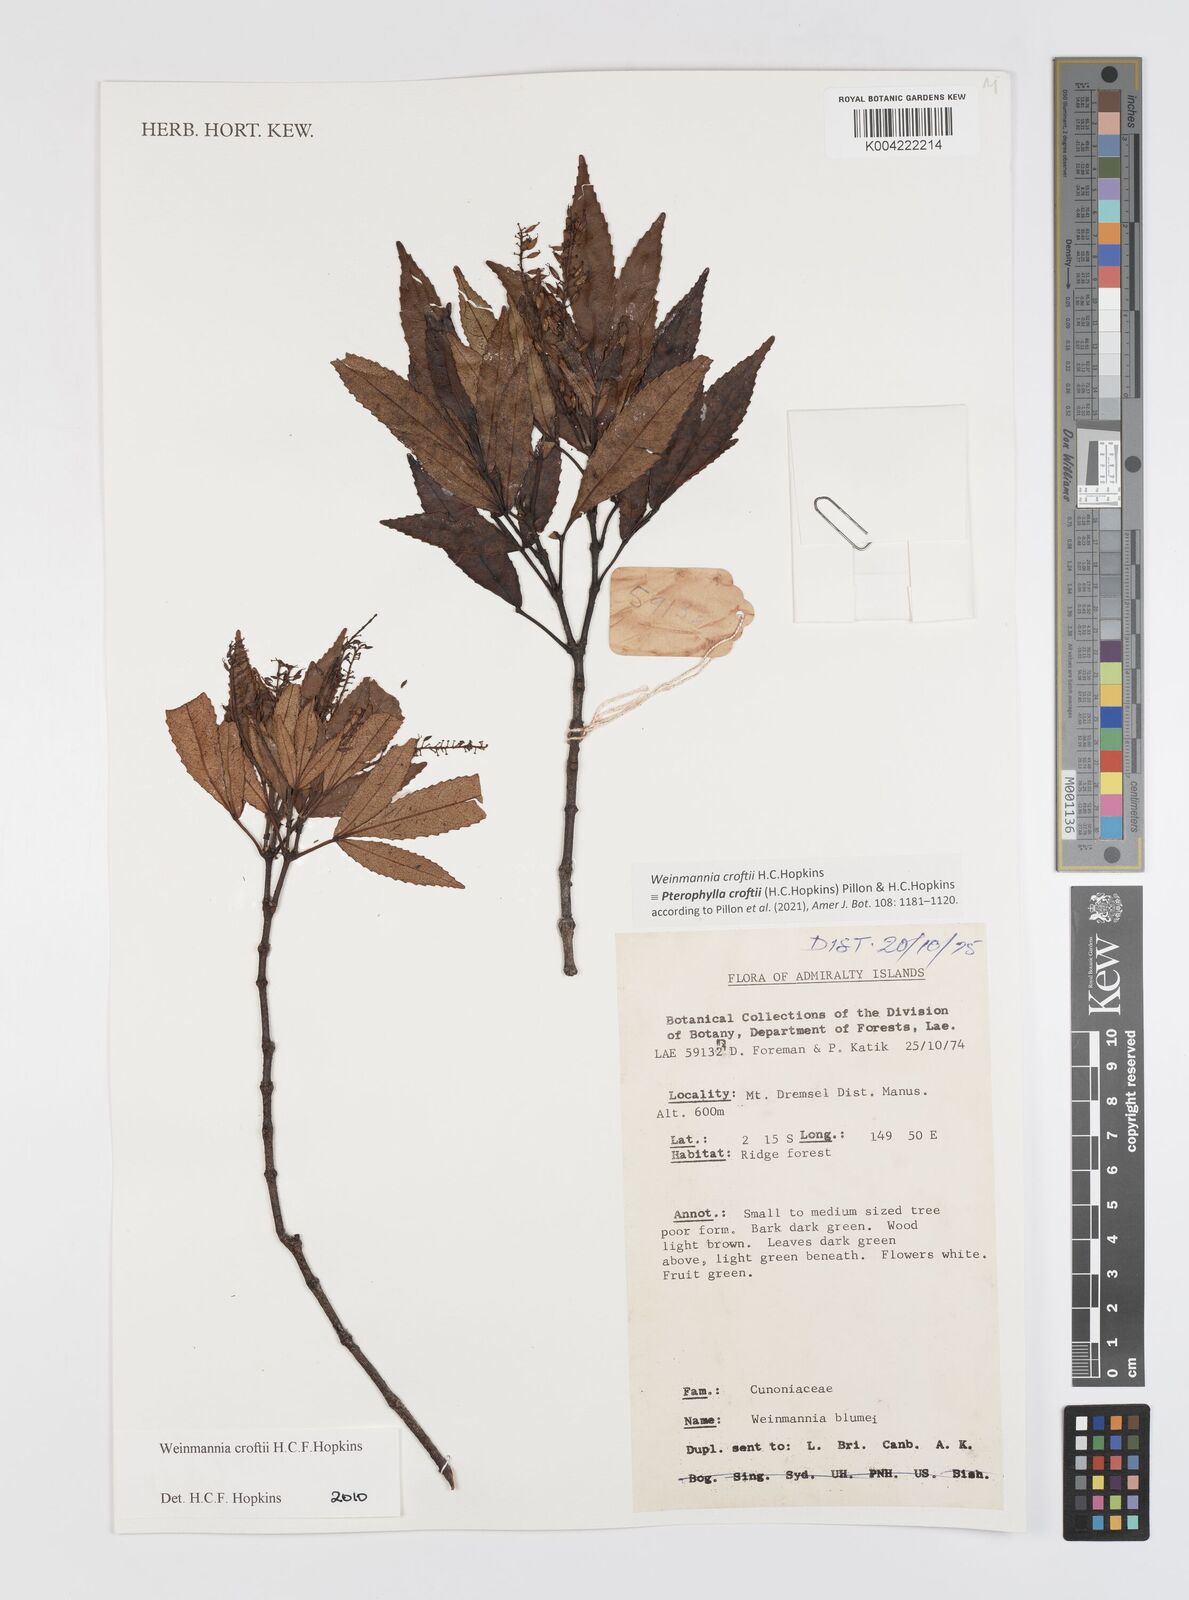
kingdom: Plantae
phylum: Tracheophyta
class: Magnoliopsida
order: Oxalidales
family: Cunoniaceae
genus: Pterophylla
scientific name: Pterophylla croftii
